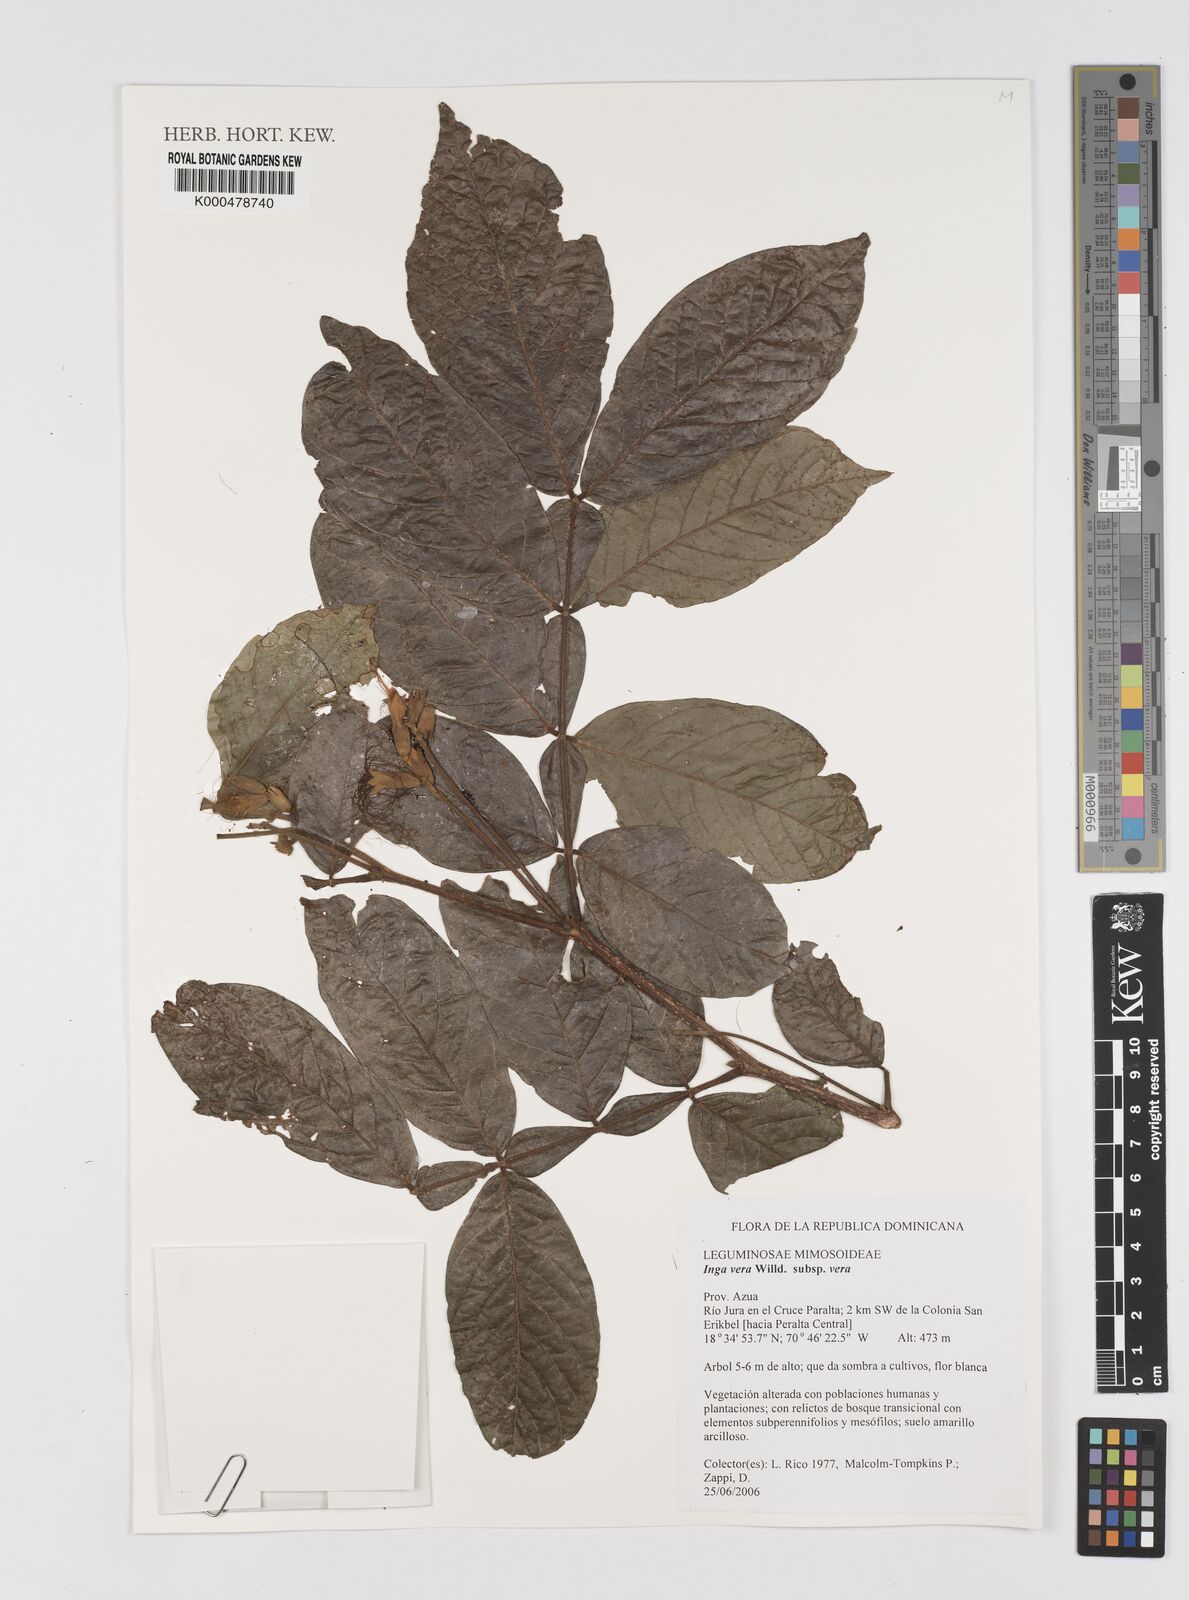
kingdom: Plantae
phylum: Tracheophyta
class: Magnoliopsida
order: Fabales
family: Fabaceae
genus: Inga
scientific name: Inga vera
